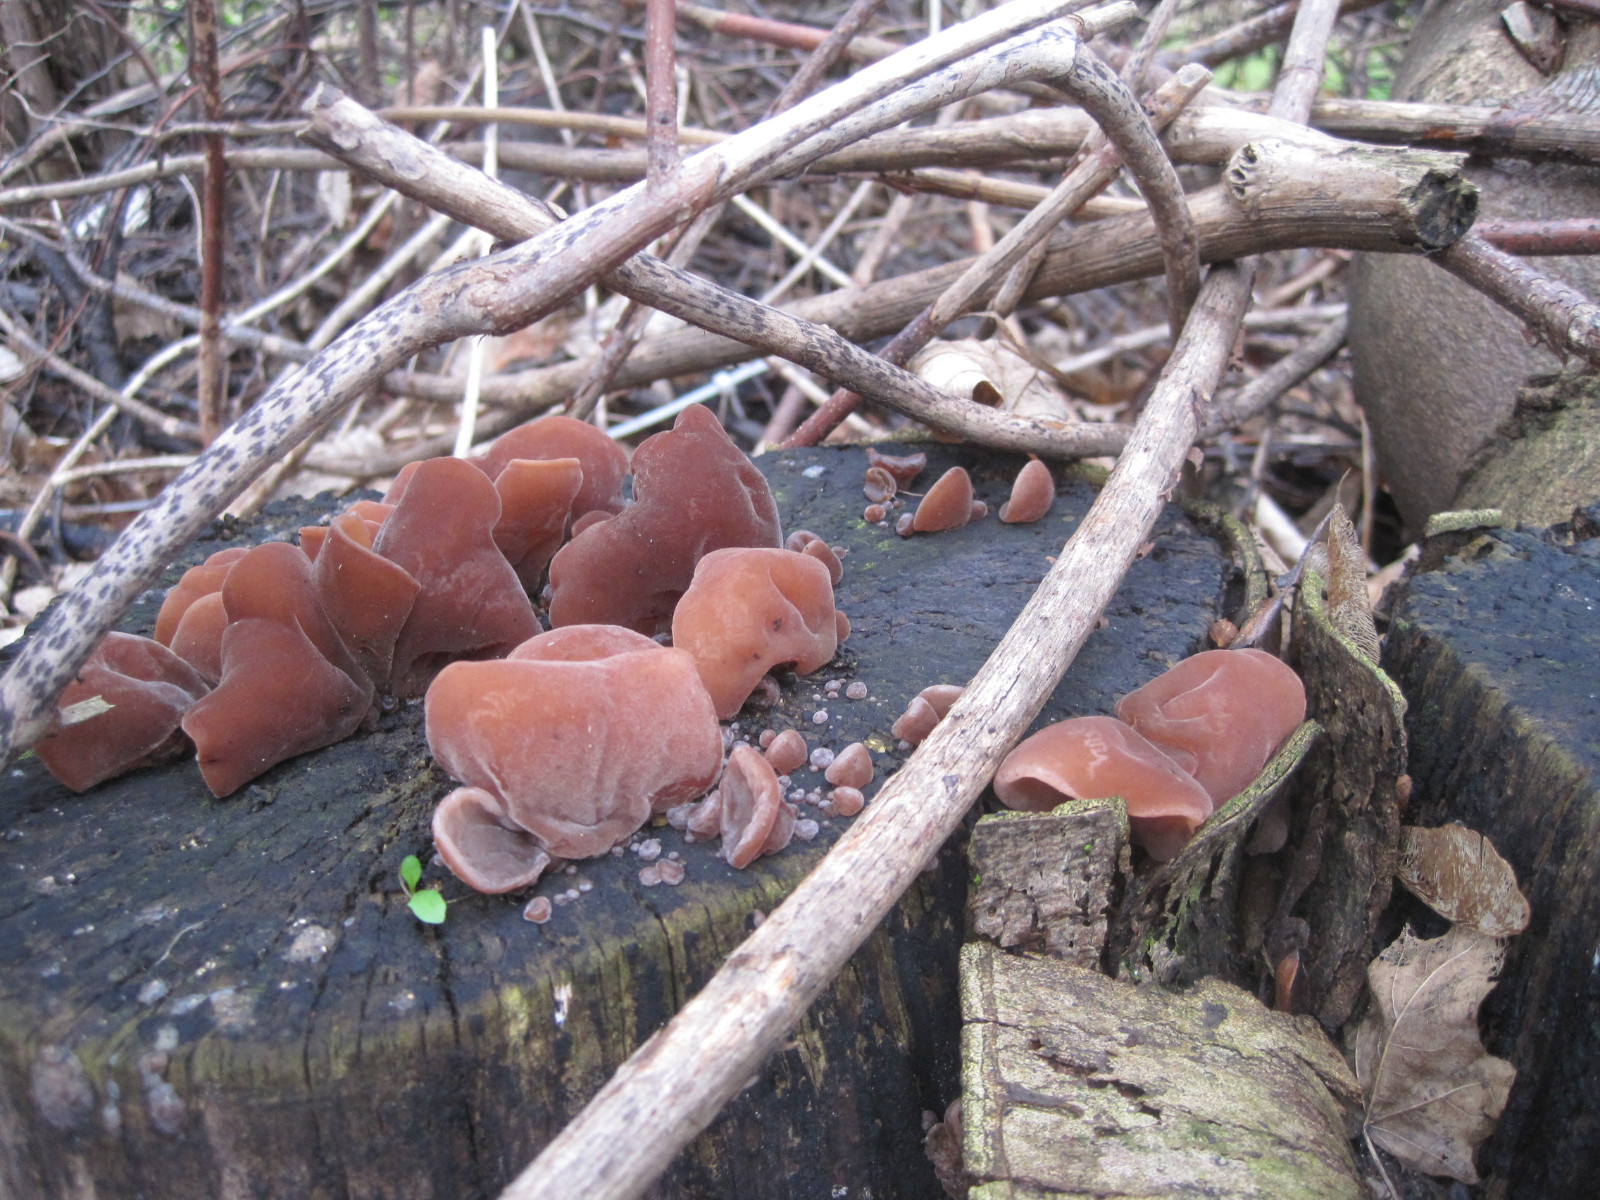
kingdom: Fungi
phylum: Basidiomycota
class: Agaricomycetes
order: Auriculariales
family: Auriculariaceae
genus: Auricularia
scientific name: Auricularia auricula-judae
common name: almindelig judasøre
